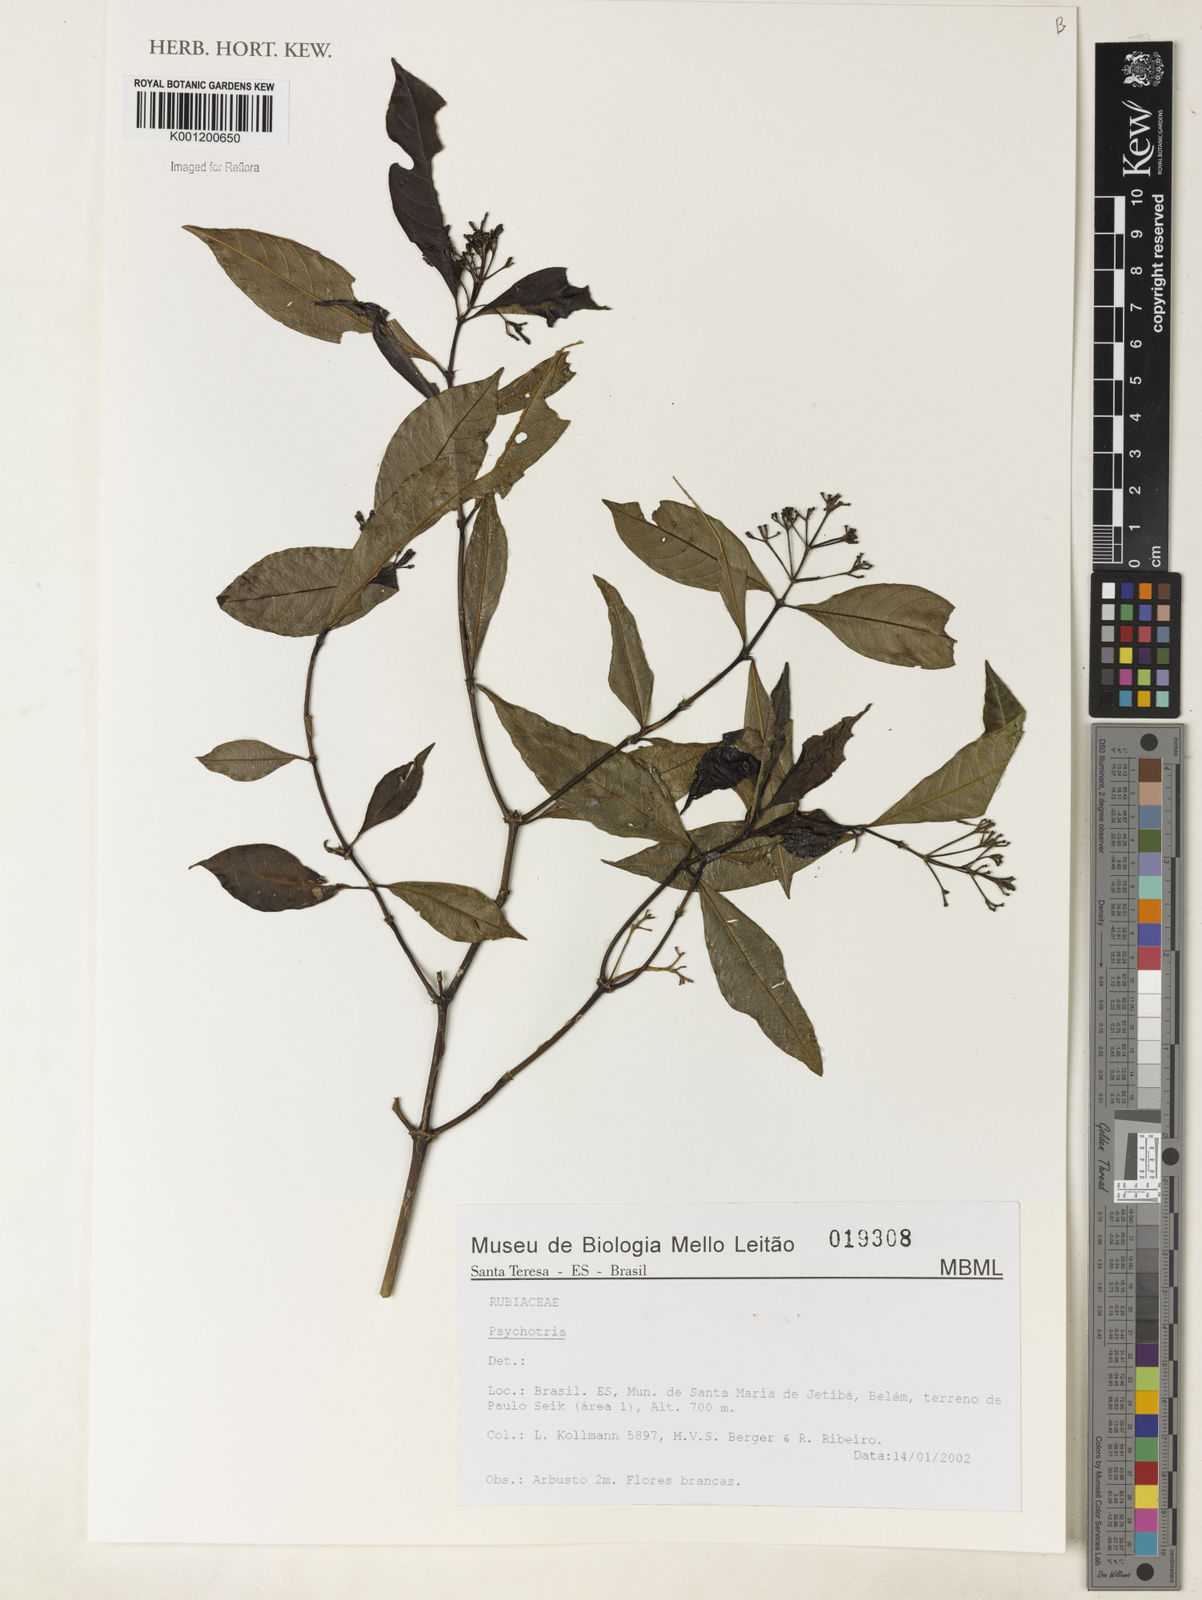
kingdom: Plantae
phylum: Tracheophyta
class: Magnoliopsida
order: Gentianales
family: Rubiaceae
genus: Psychotria
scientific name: Psychotria
